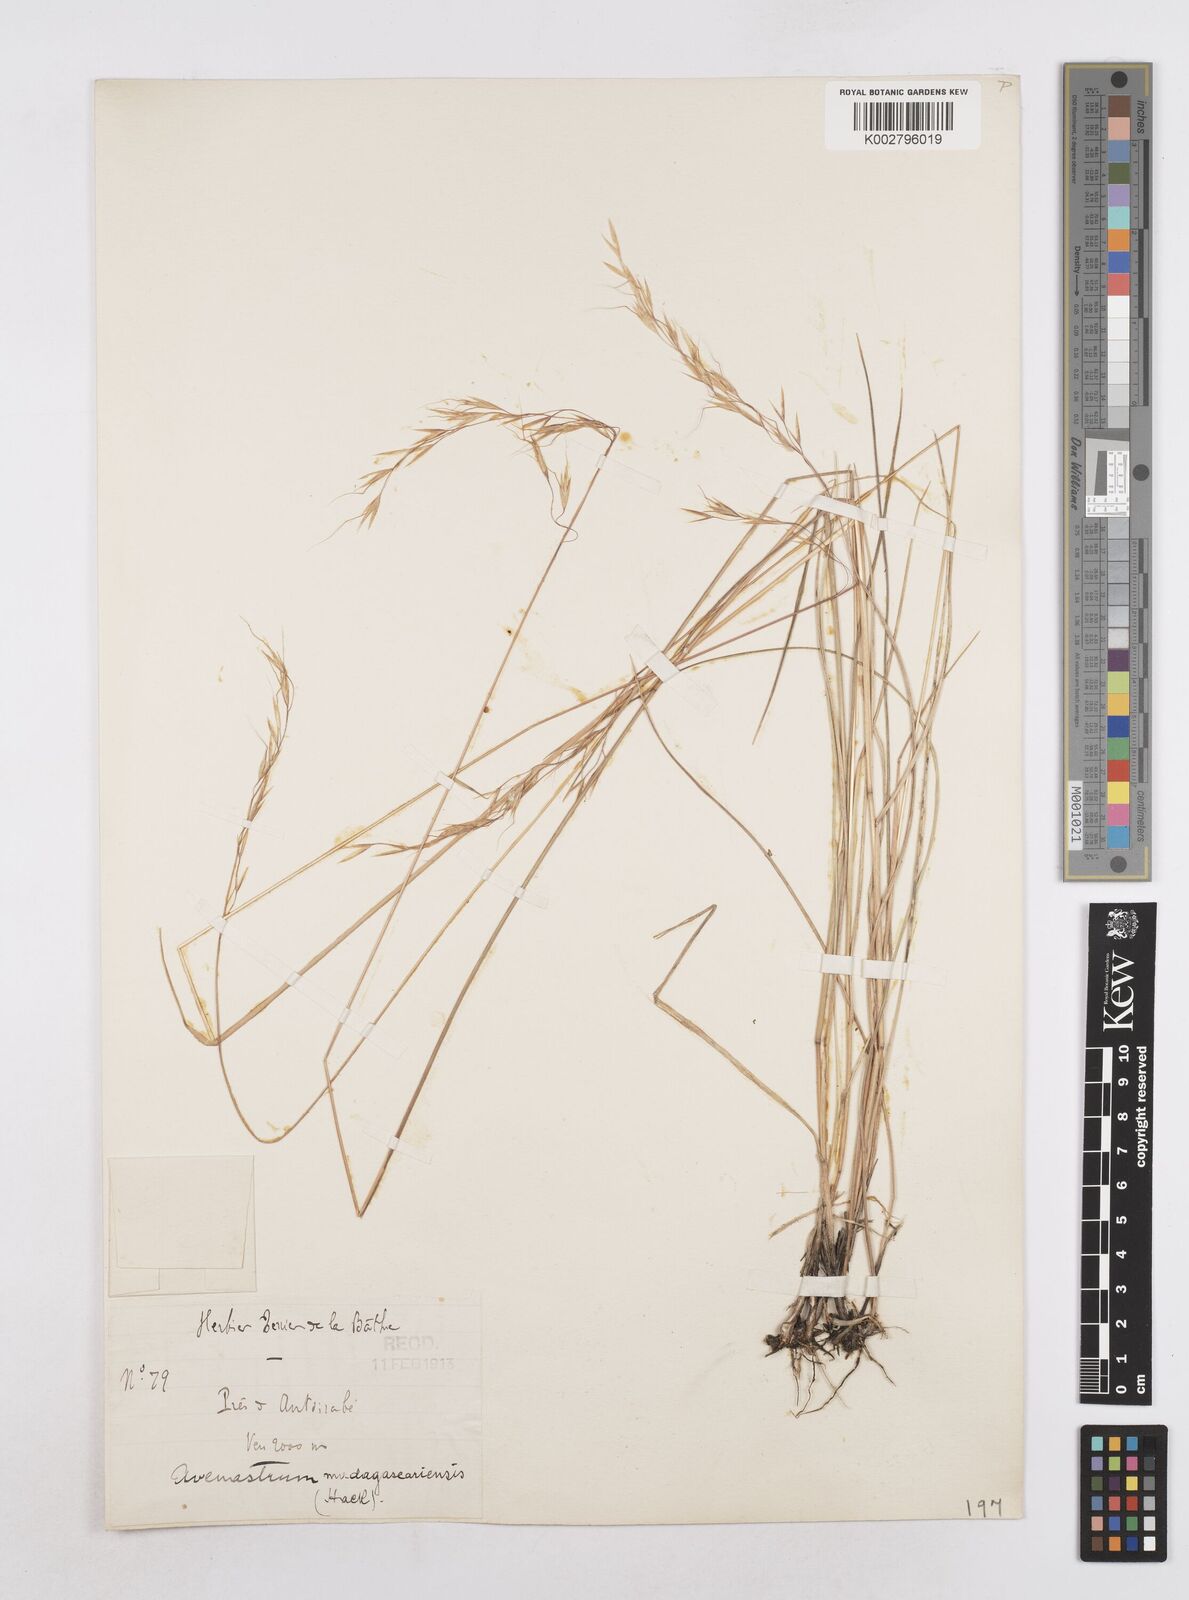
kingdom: Plantae
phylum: Tracheophyta
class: Liliopsida
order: Poales
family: Poaceae
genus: Trisetopsis
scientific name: Trisetopsis elongata
